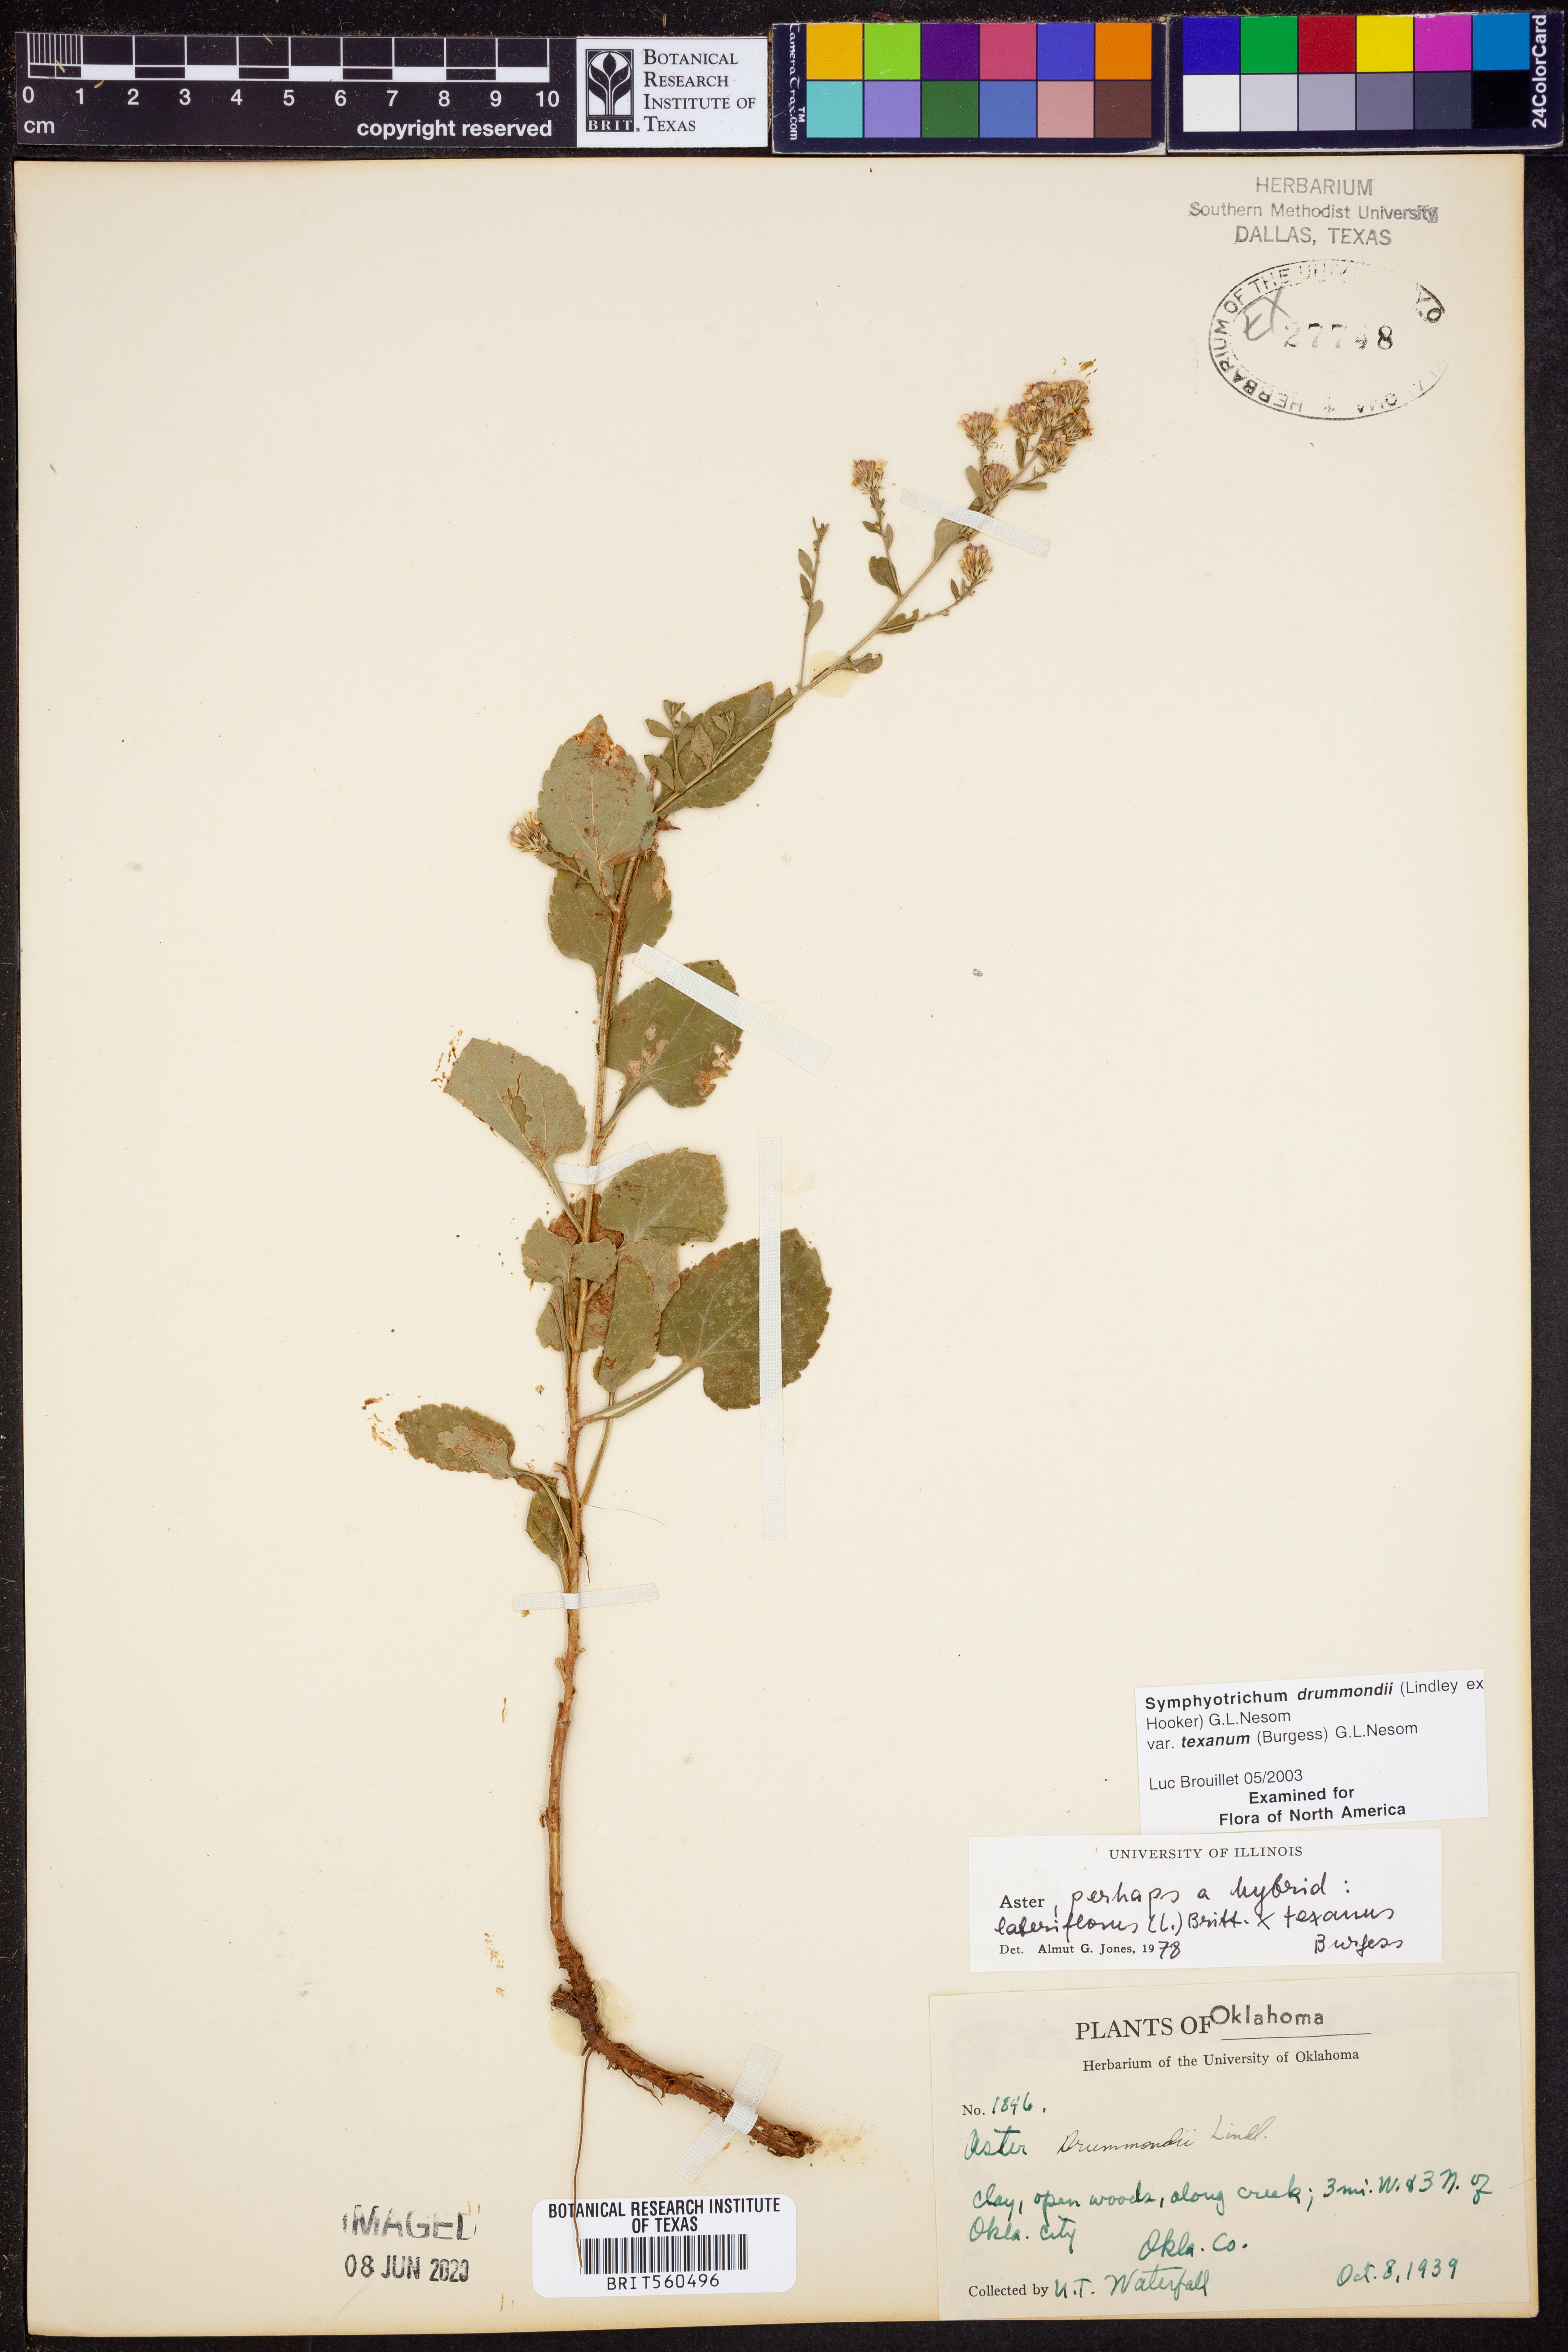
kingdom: Plantae
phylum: Tracheophyta
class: Magnoliopsida
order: Asterales
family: Asteraceae
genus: Symphyotrichum
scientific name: Symphyotrichum drummondii
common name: Drummond's aster
